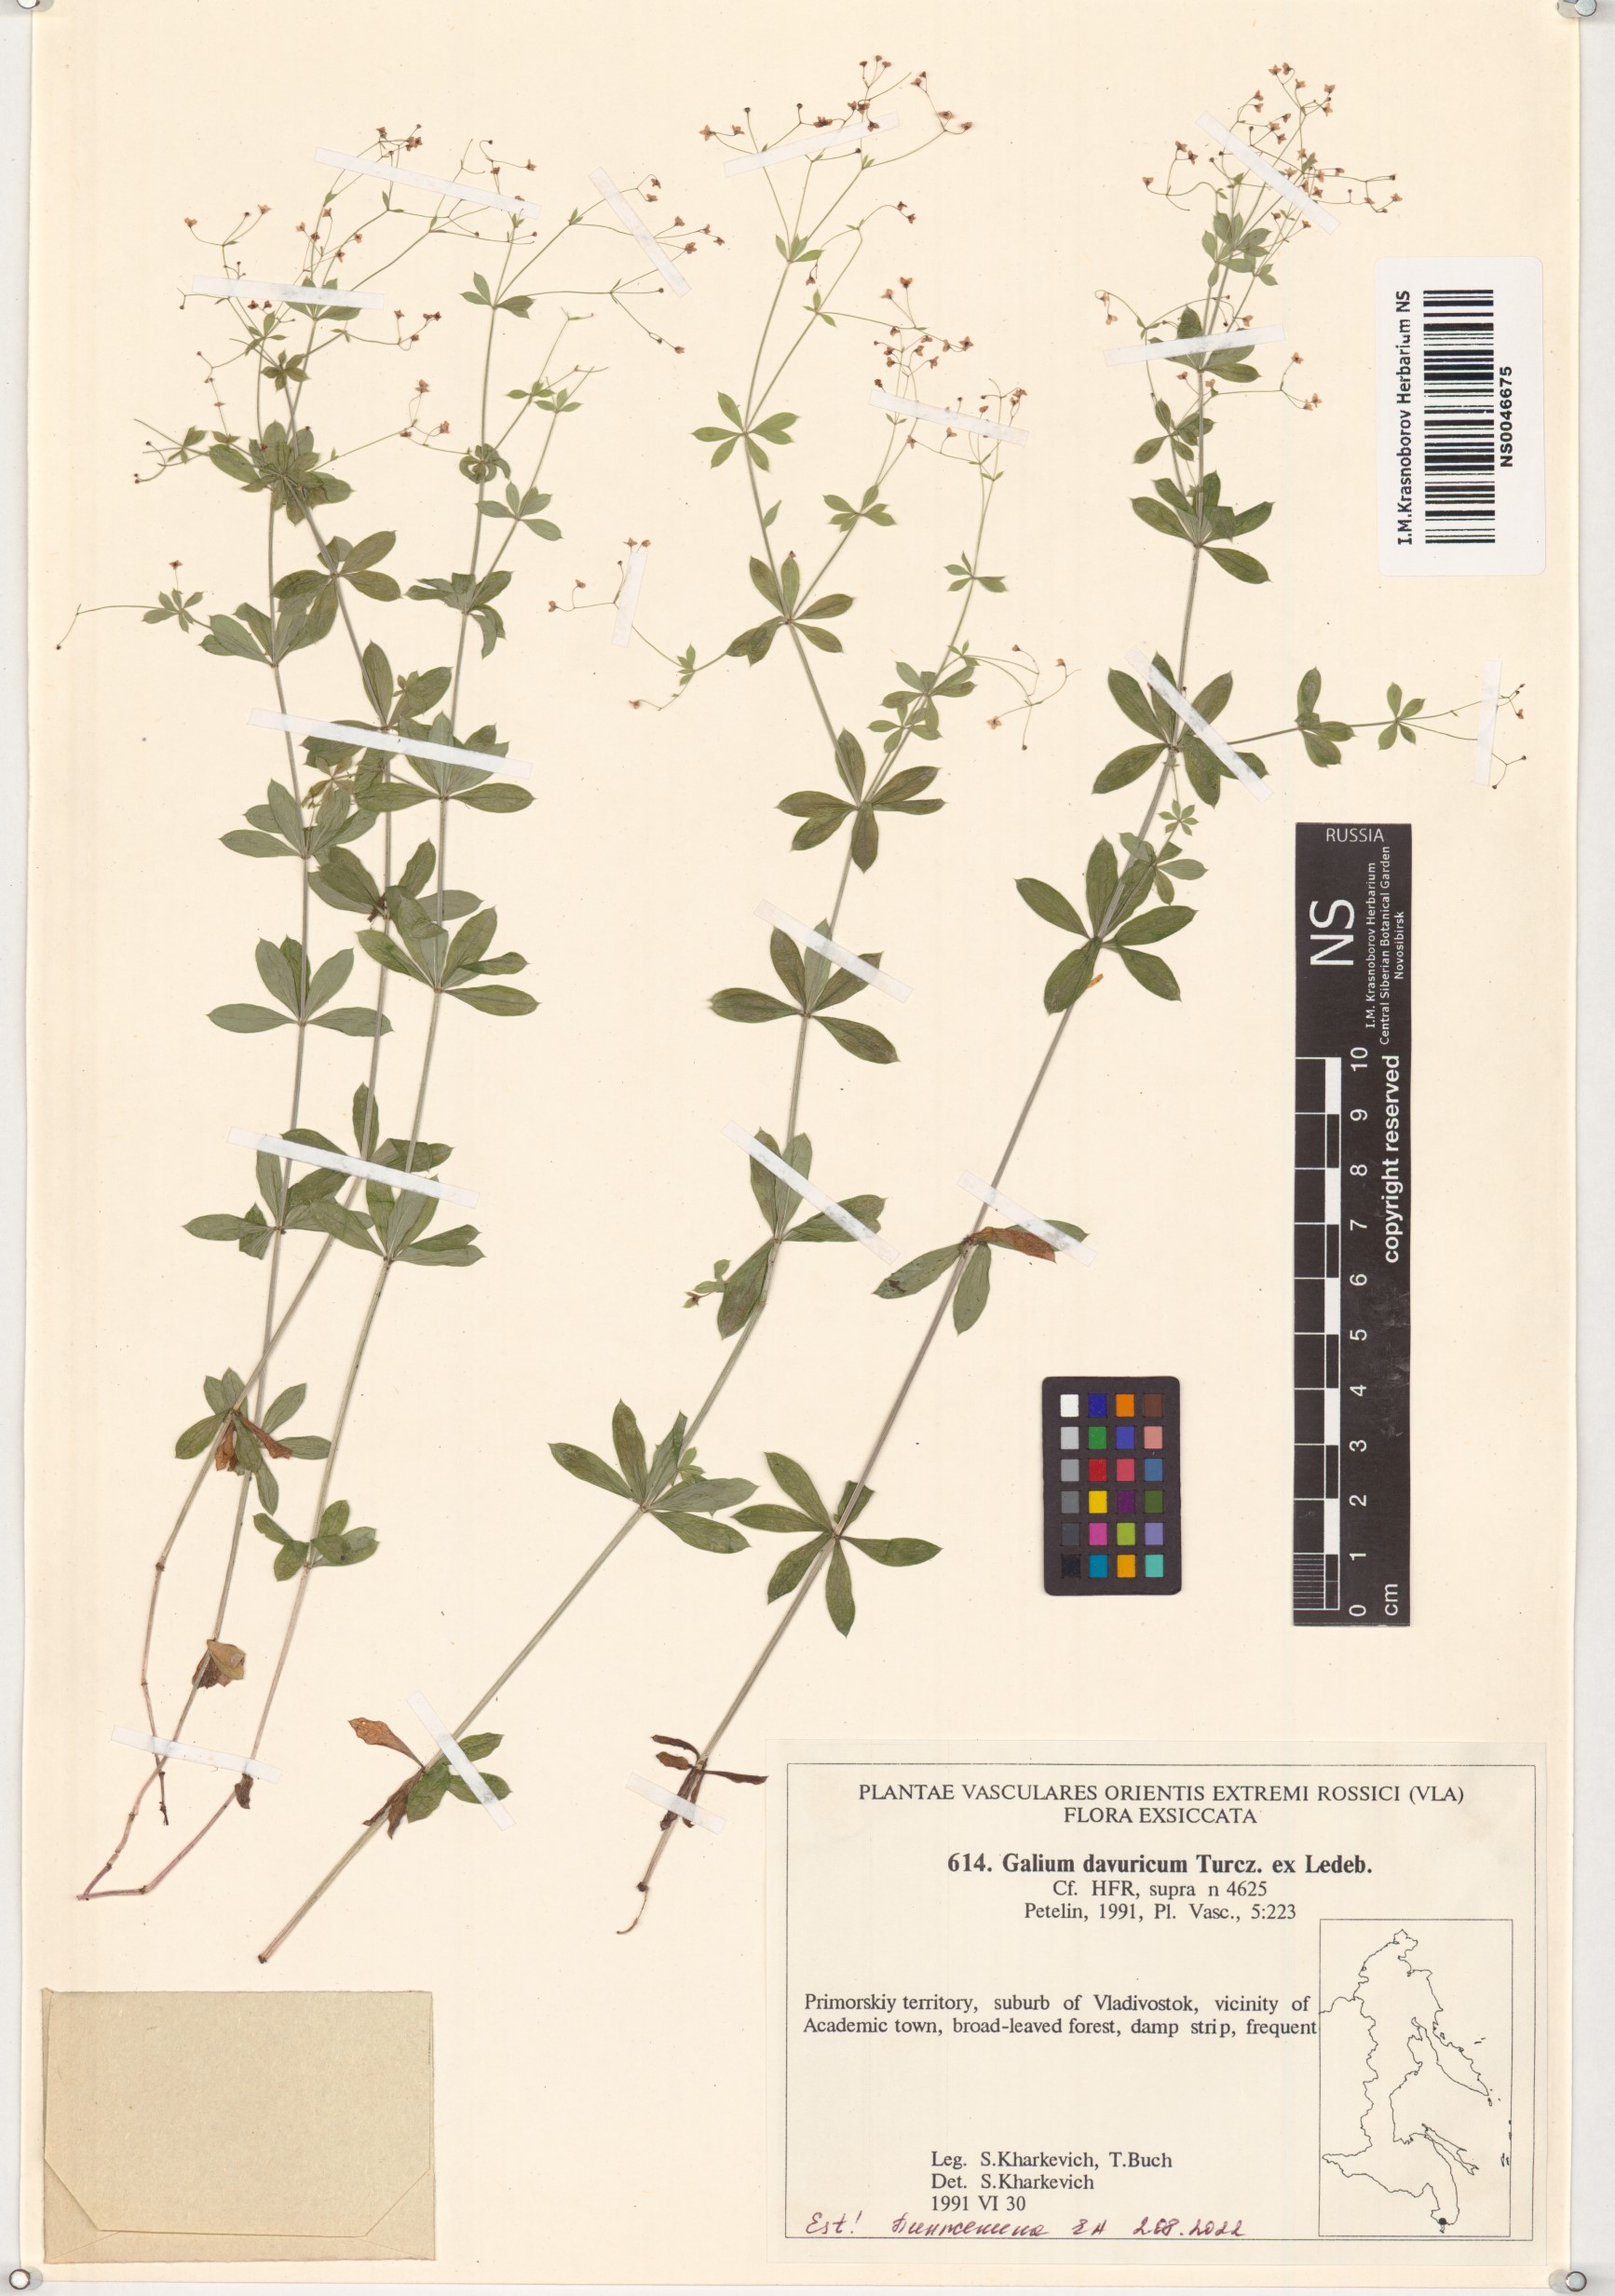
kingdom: Plantae
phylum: Tracheophyta
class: Magnoliopsida
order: Gentianales
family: Rubiaceae
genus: Galium
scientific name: Galium dahuricum
